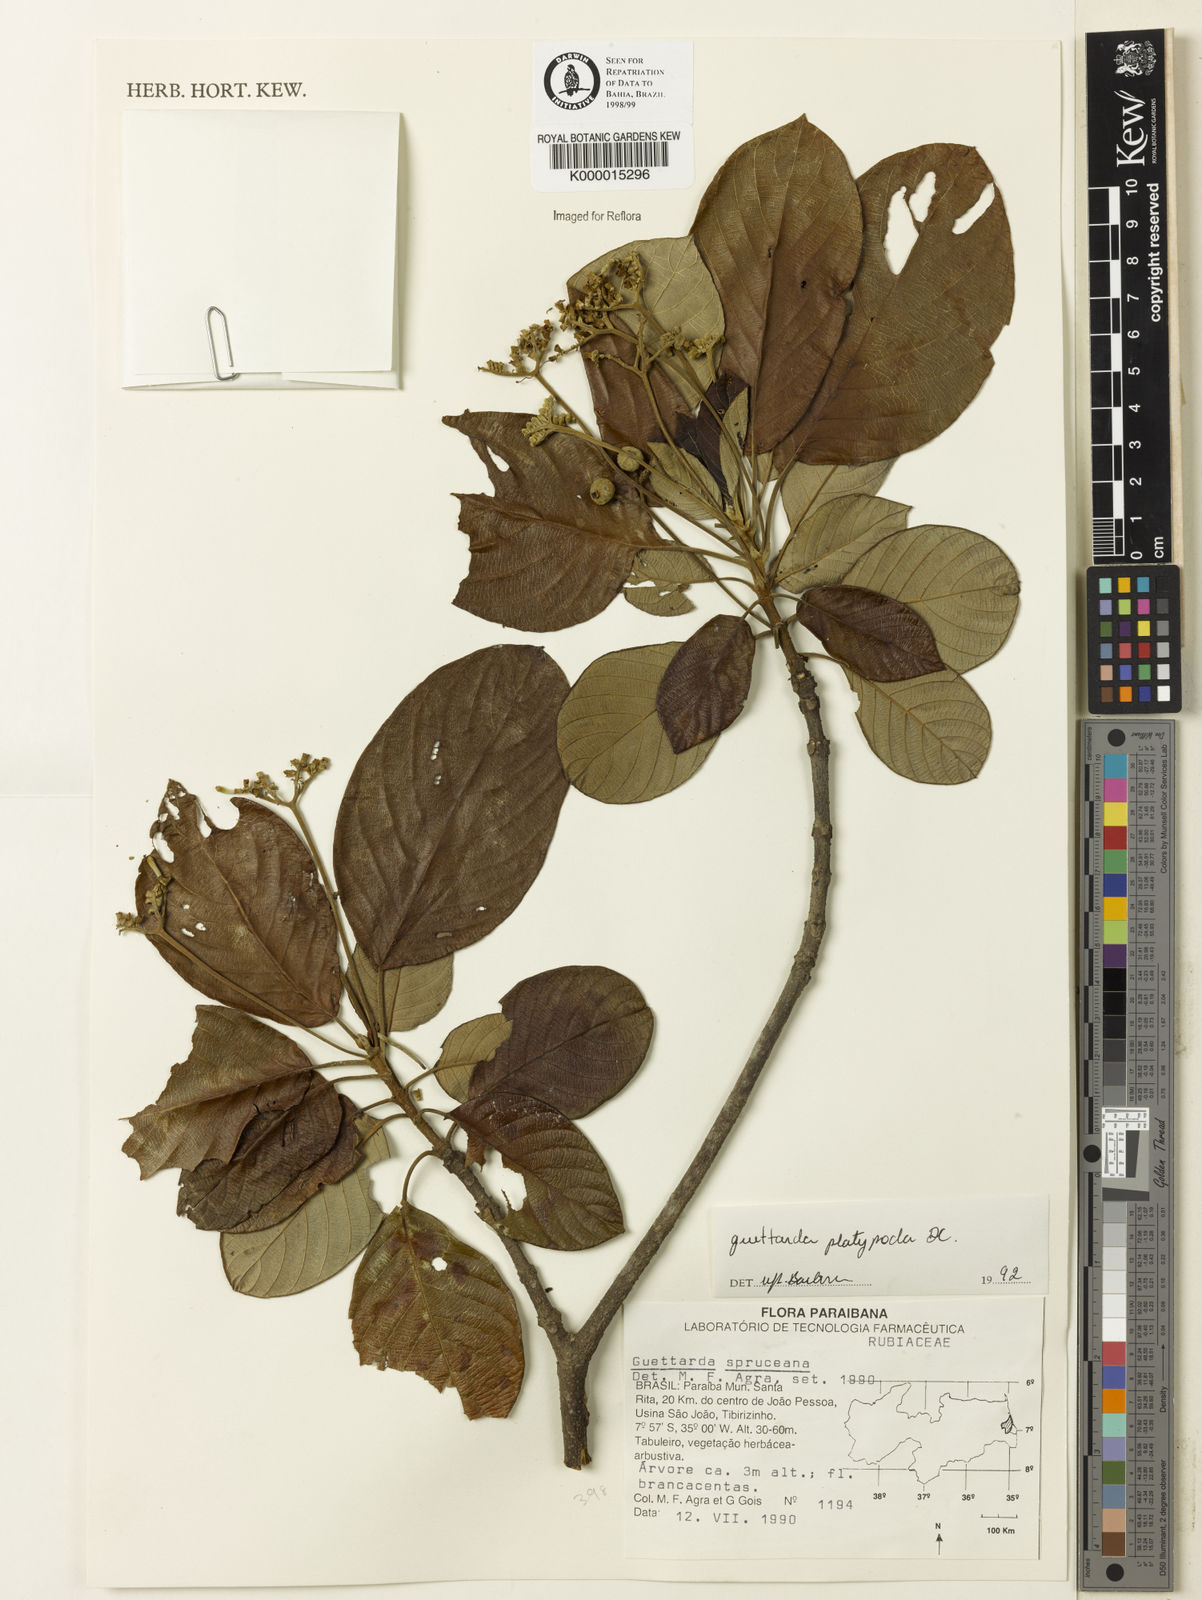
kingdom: Plantae
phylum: Tracheophyta
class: Magnoliopsida
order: Gentianales
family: Rubiaceae
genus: Guettarda
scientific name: Guettarda platypoda
